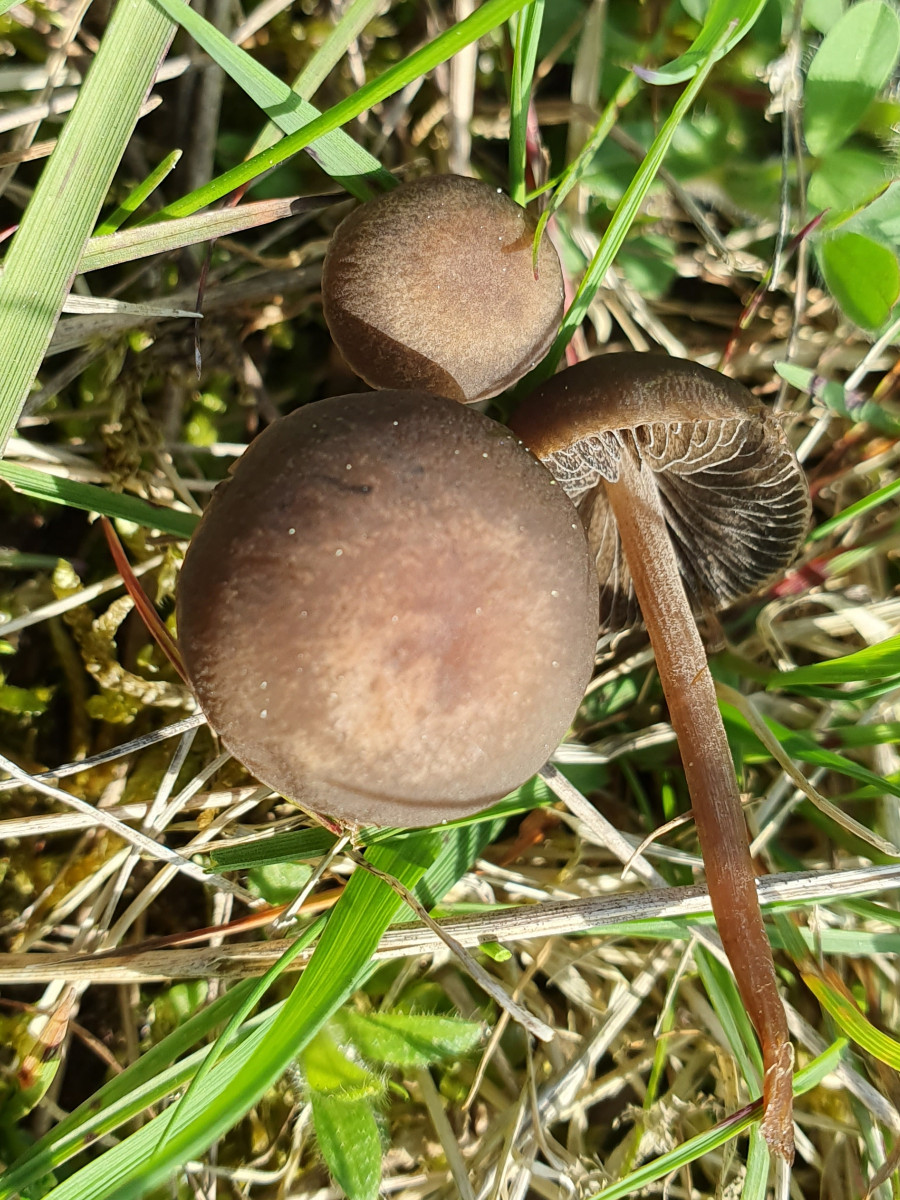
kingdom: Fungi
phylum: Basidiomycota
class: Agaricomycetes
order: Agaricales
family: Bolbitiaceae
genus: Panaeolus
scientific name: Panaeolus fimicola
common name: tidlig glanshat
